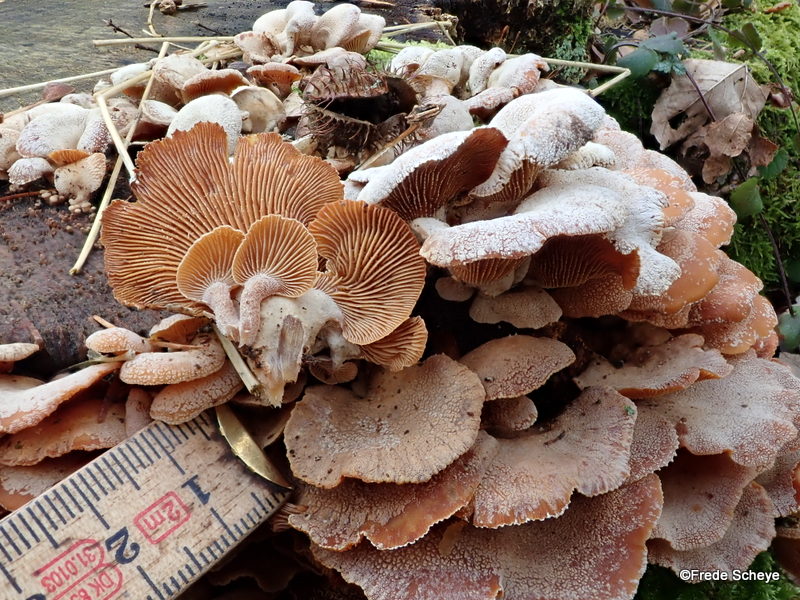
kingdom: Fungi
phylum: Basidiomycota
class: Agaricomycetes
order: Agaricales
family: Mycenaceae
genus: Panellus
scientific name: Panellus stipticus
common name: kliddet epaulethat
